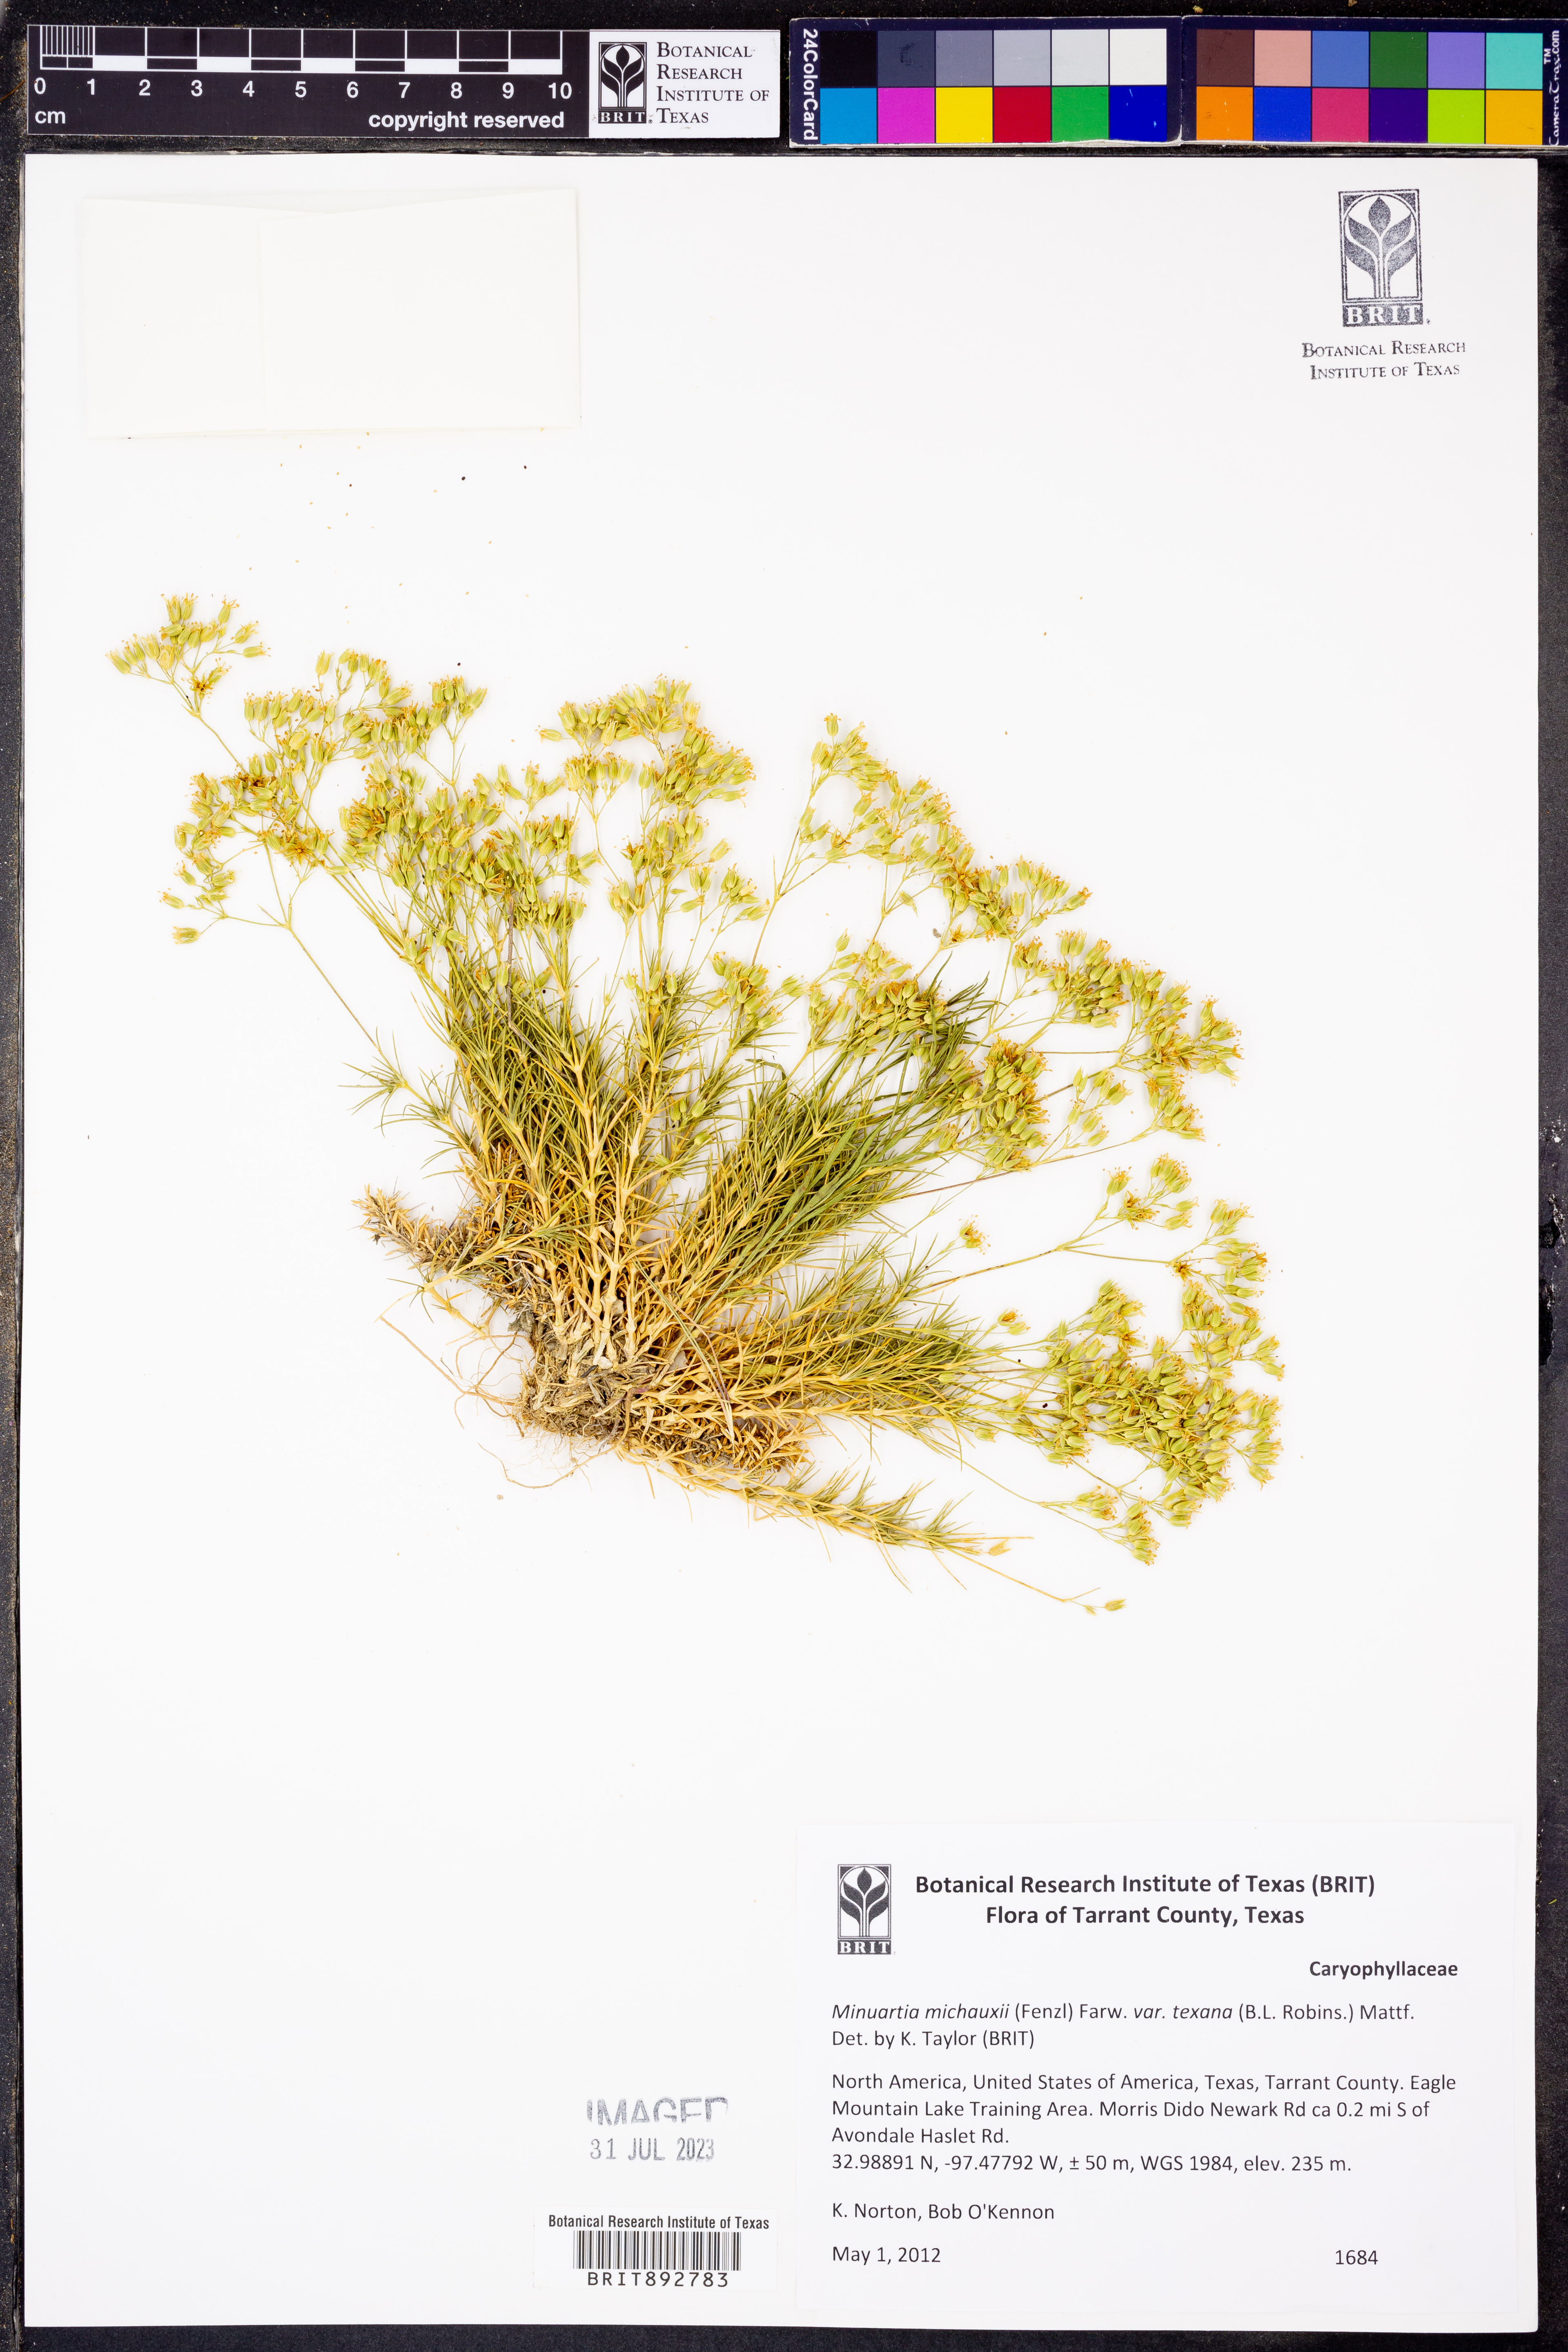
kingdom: Plantae
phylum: Tracheophyta
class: Magnoliopsida
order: Caryophyllales
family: Caryophyllaceae
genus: Sabulina
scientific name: Sabulina texana
